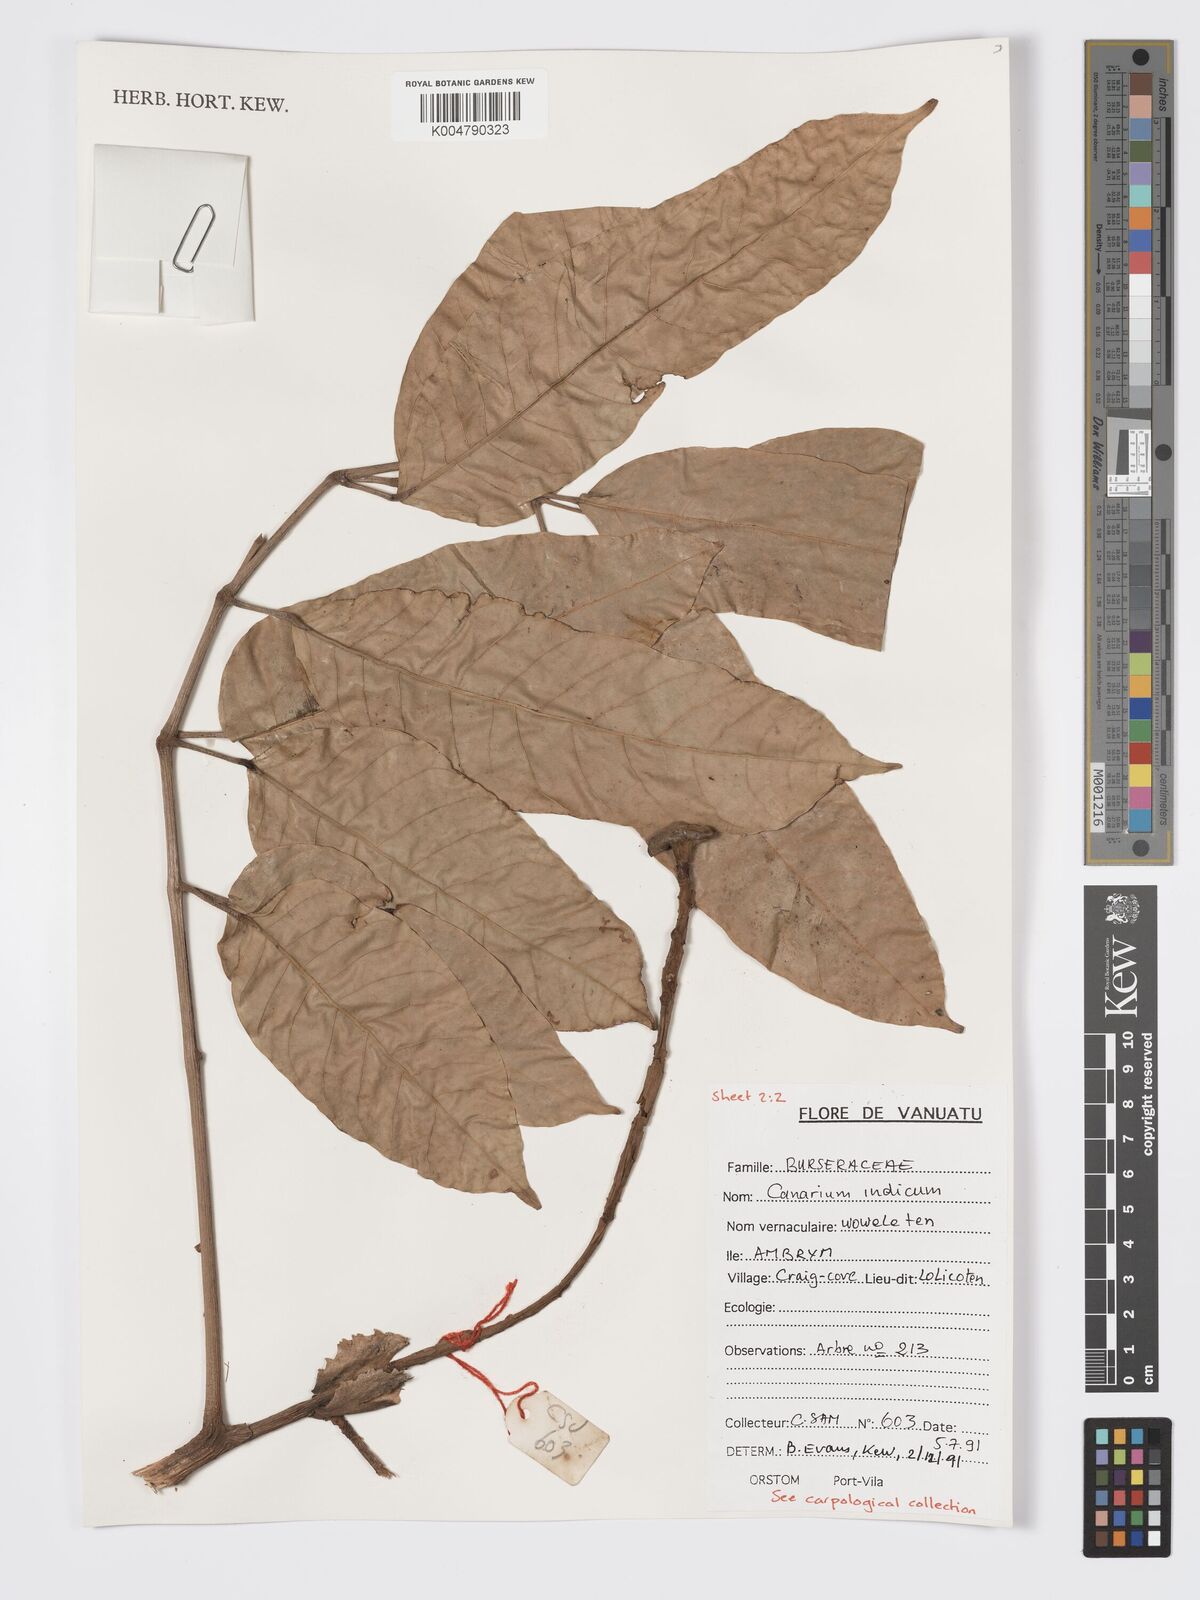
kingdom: Plantae
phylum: Tracheophyta
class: Magnoliopsida
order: Sapindales
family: Burseraceae
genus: Canarium
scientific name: Canarium indicum
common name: Canarium-nut
